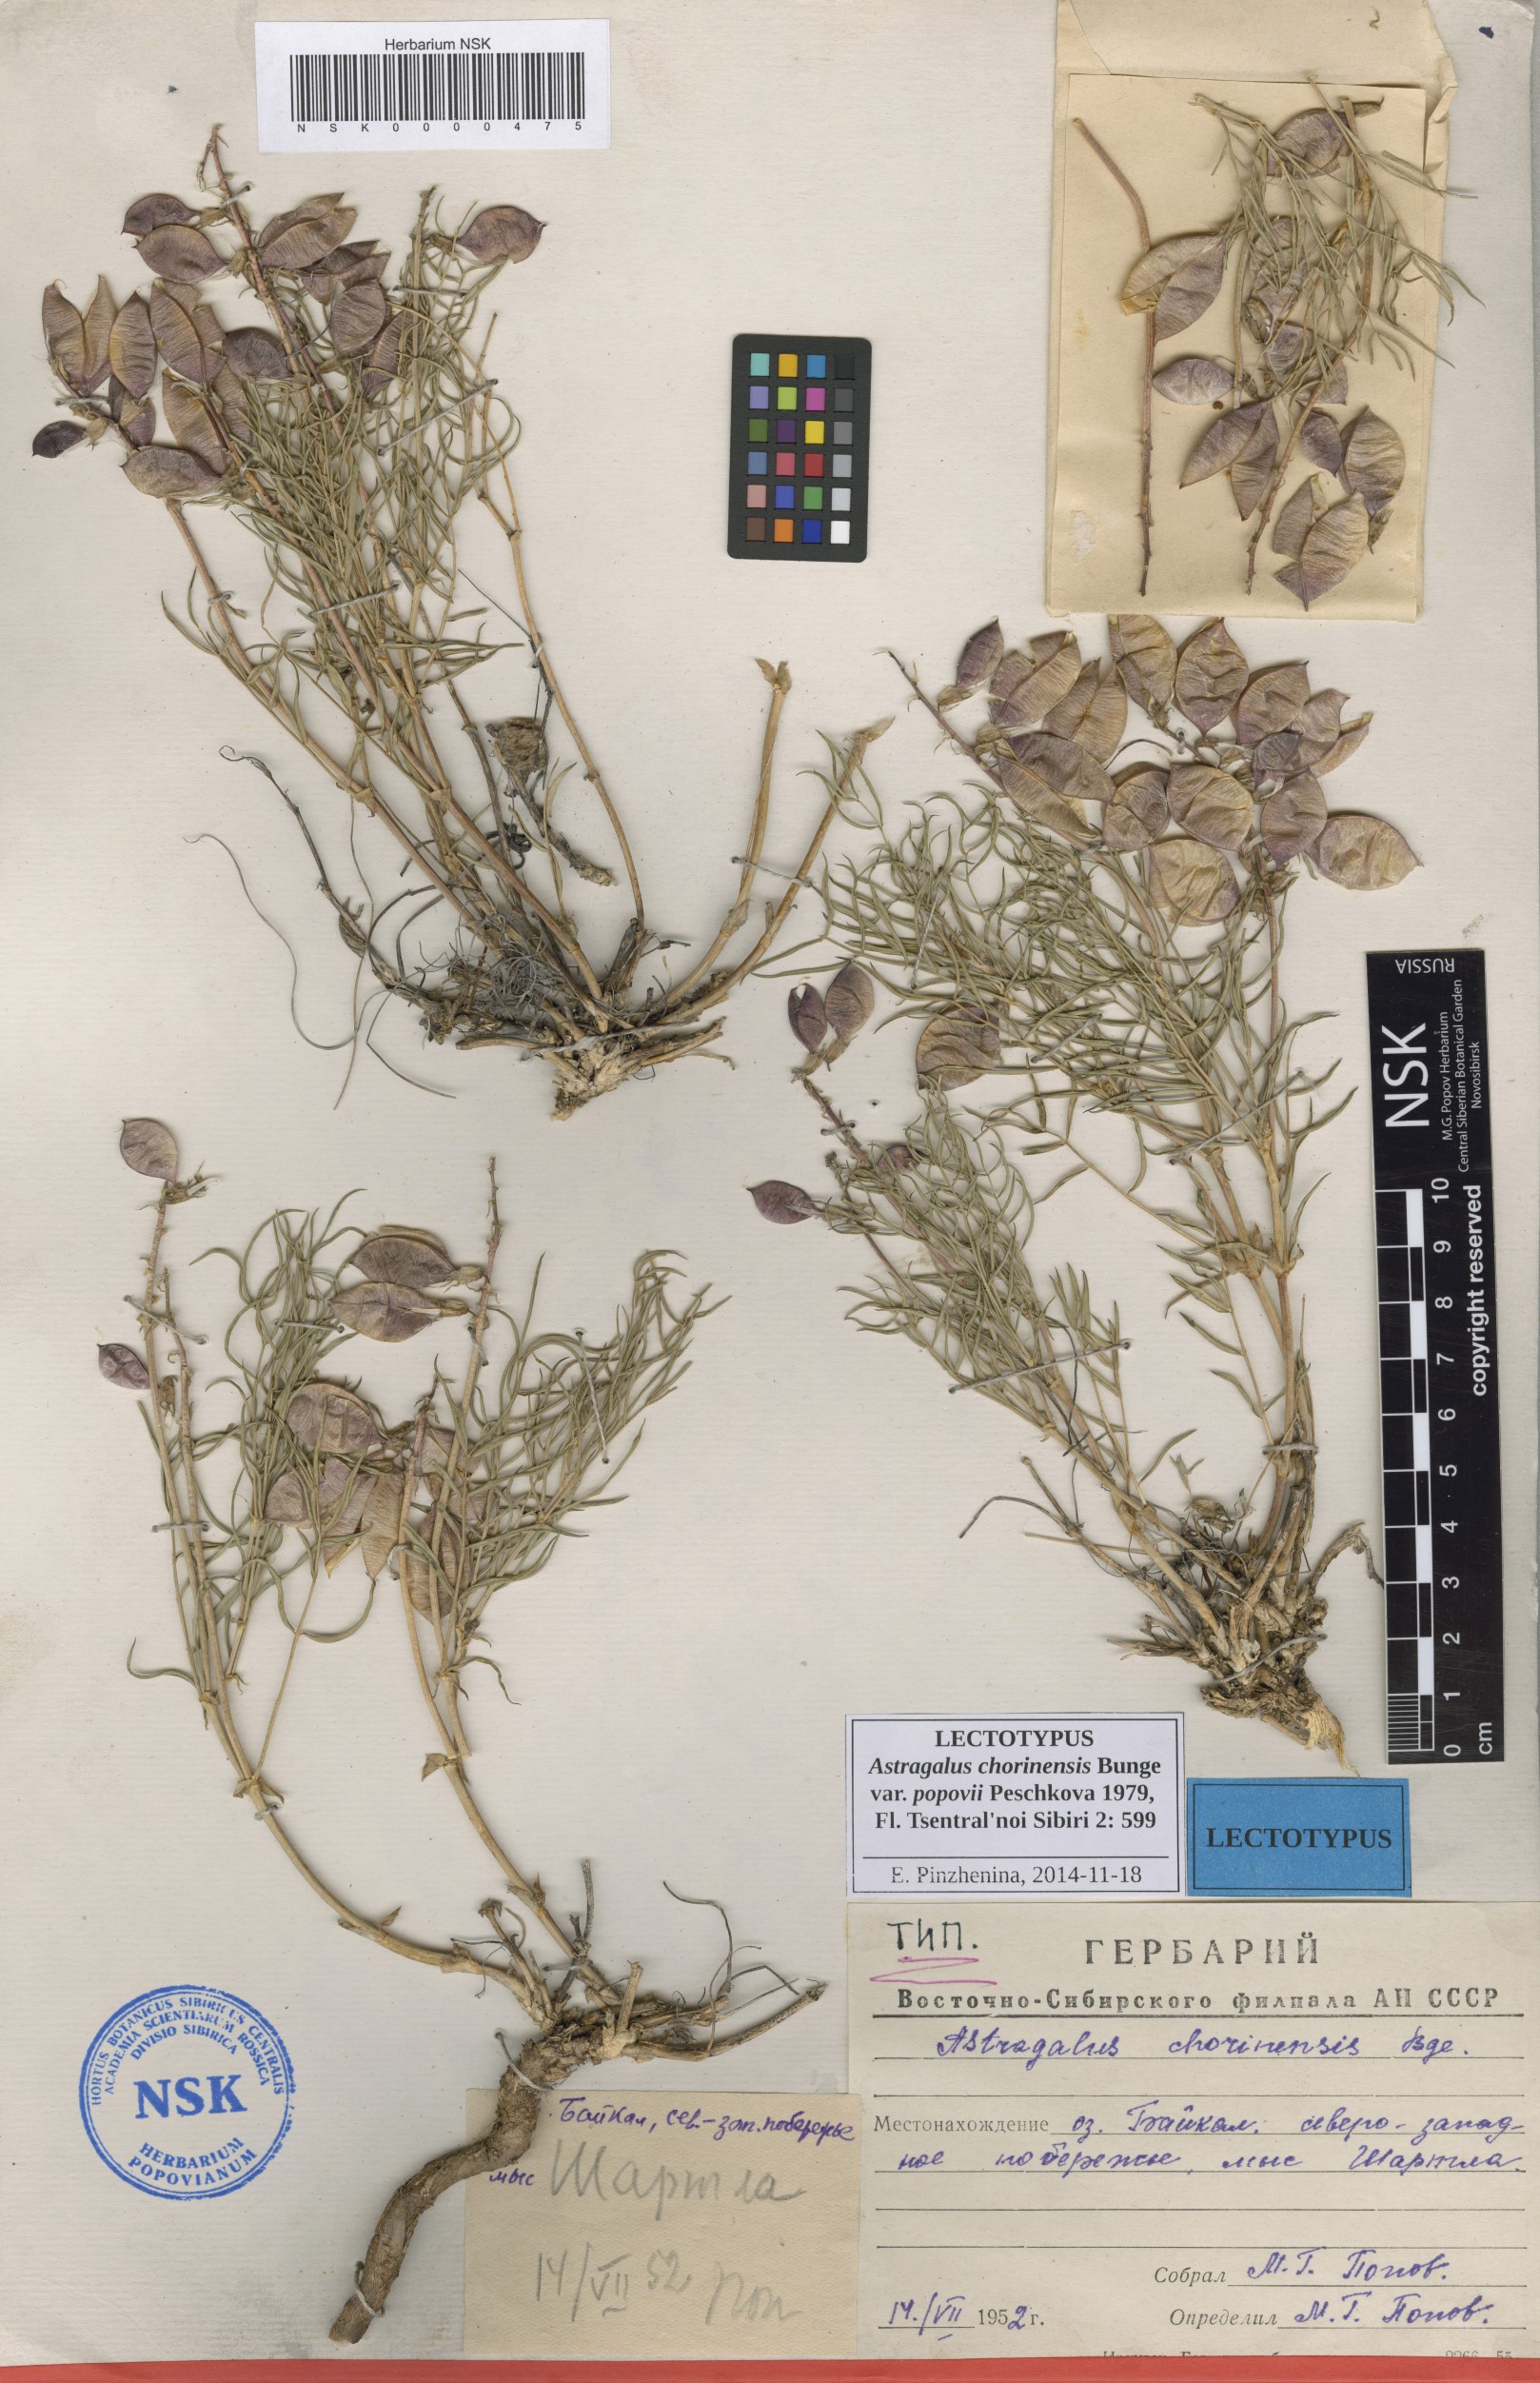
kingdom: Plantae
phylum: Tracheophyta
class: Magnoliopsida
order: Fabales
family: Fabaceae
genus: Astragalus
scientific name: Astragalus chorinensis
